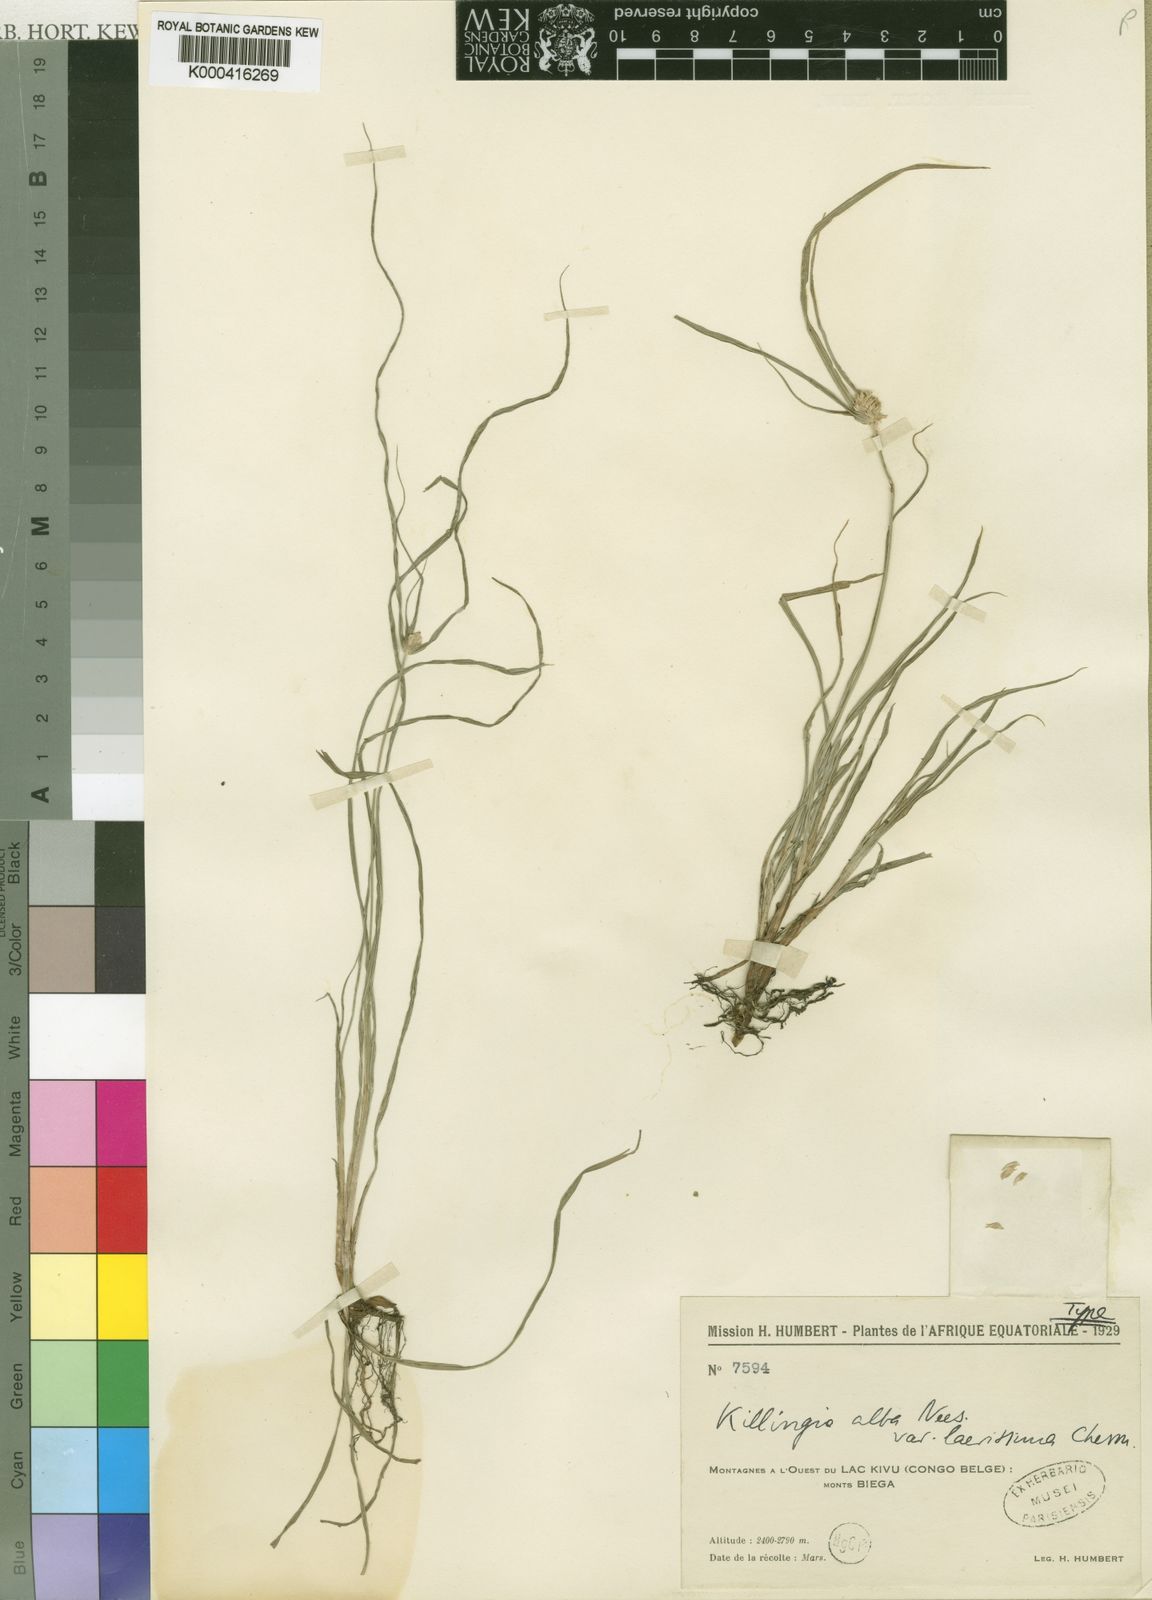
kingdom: Plantae
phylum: Tracheophyta
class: Liliopsida
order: Poales
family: Cyperaceae
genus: Cyperus
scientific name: Cyperus alatus
